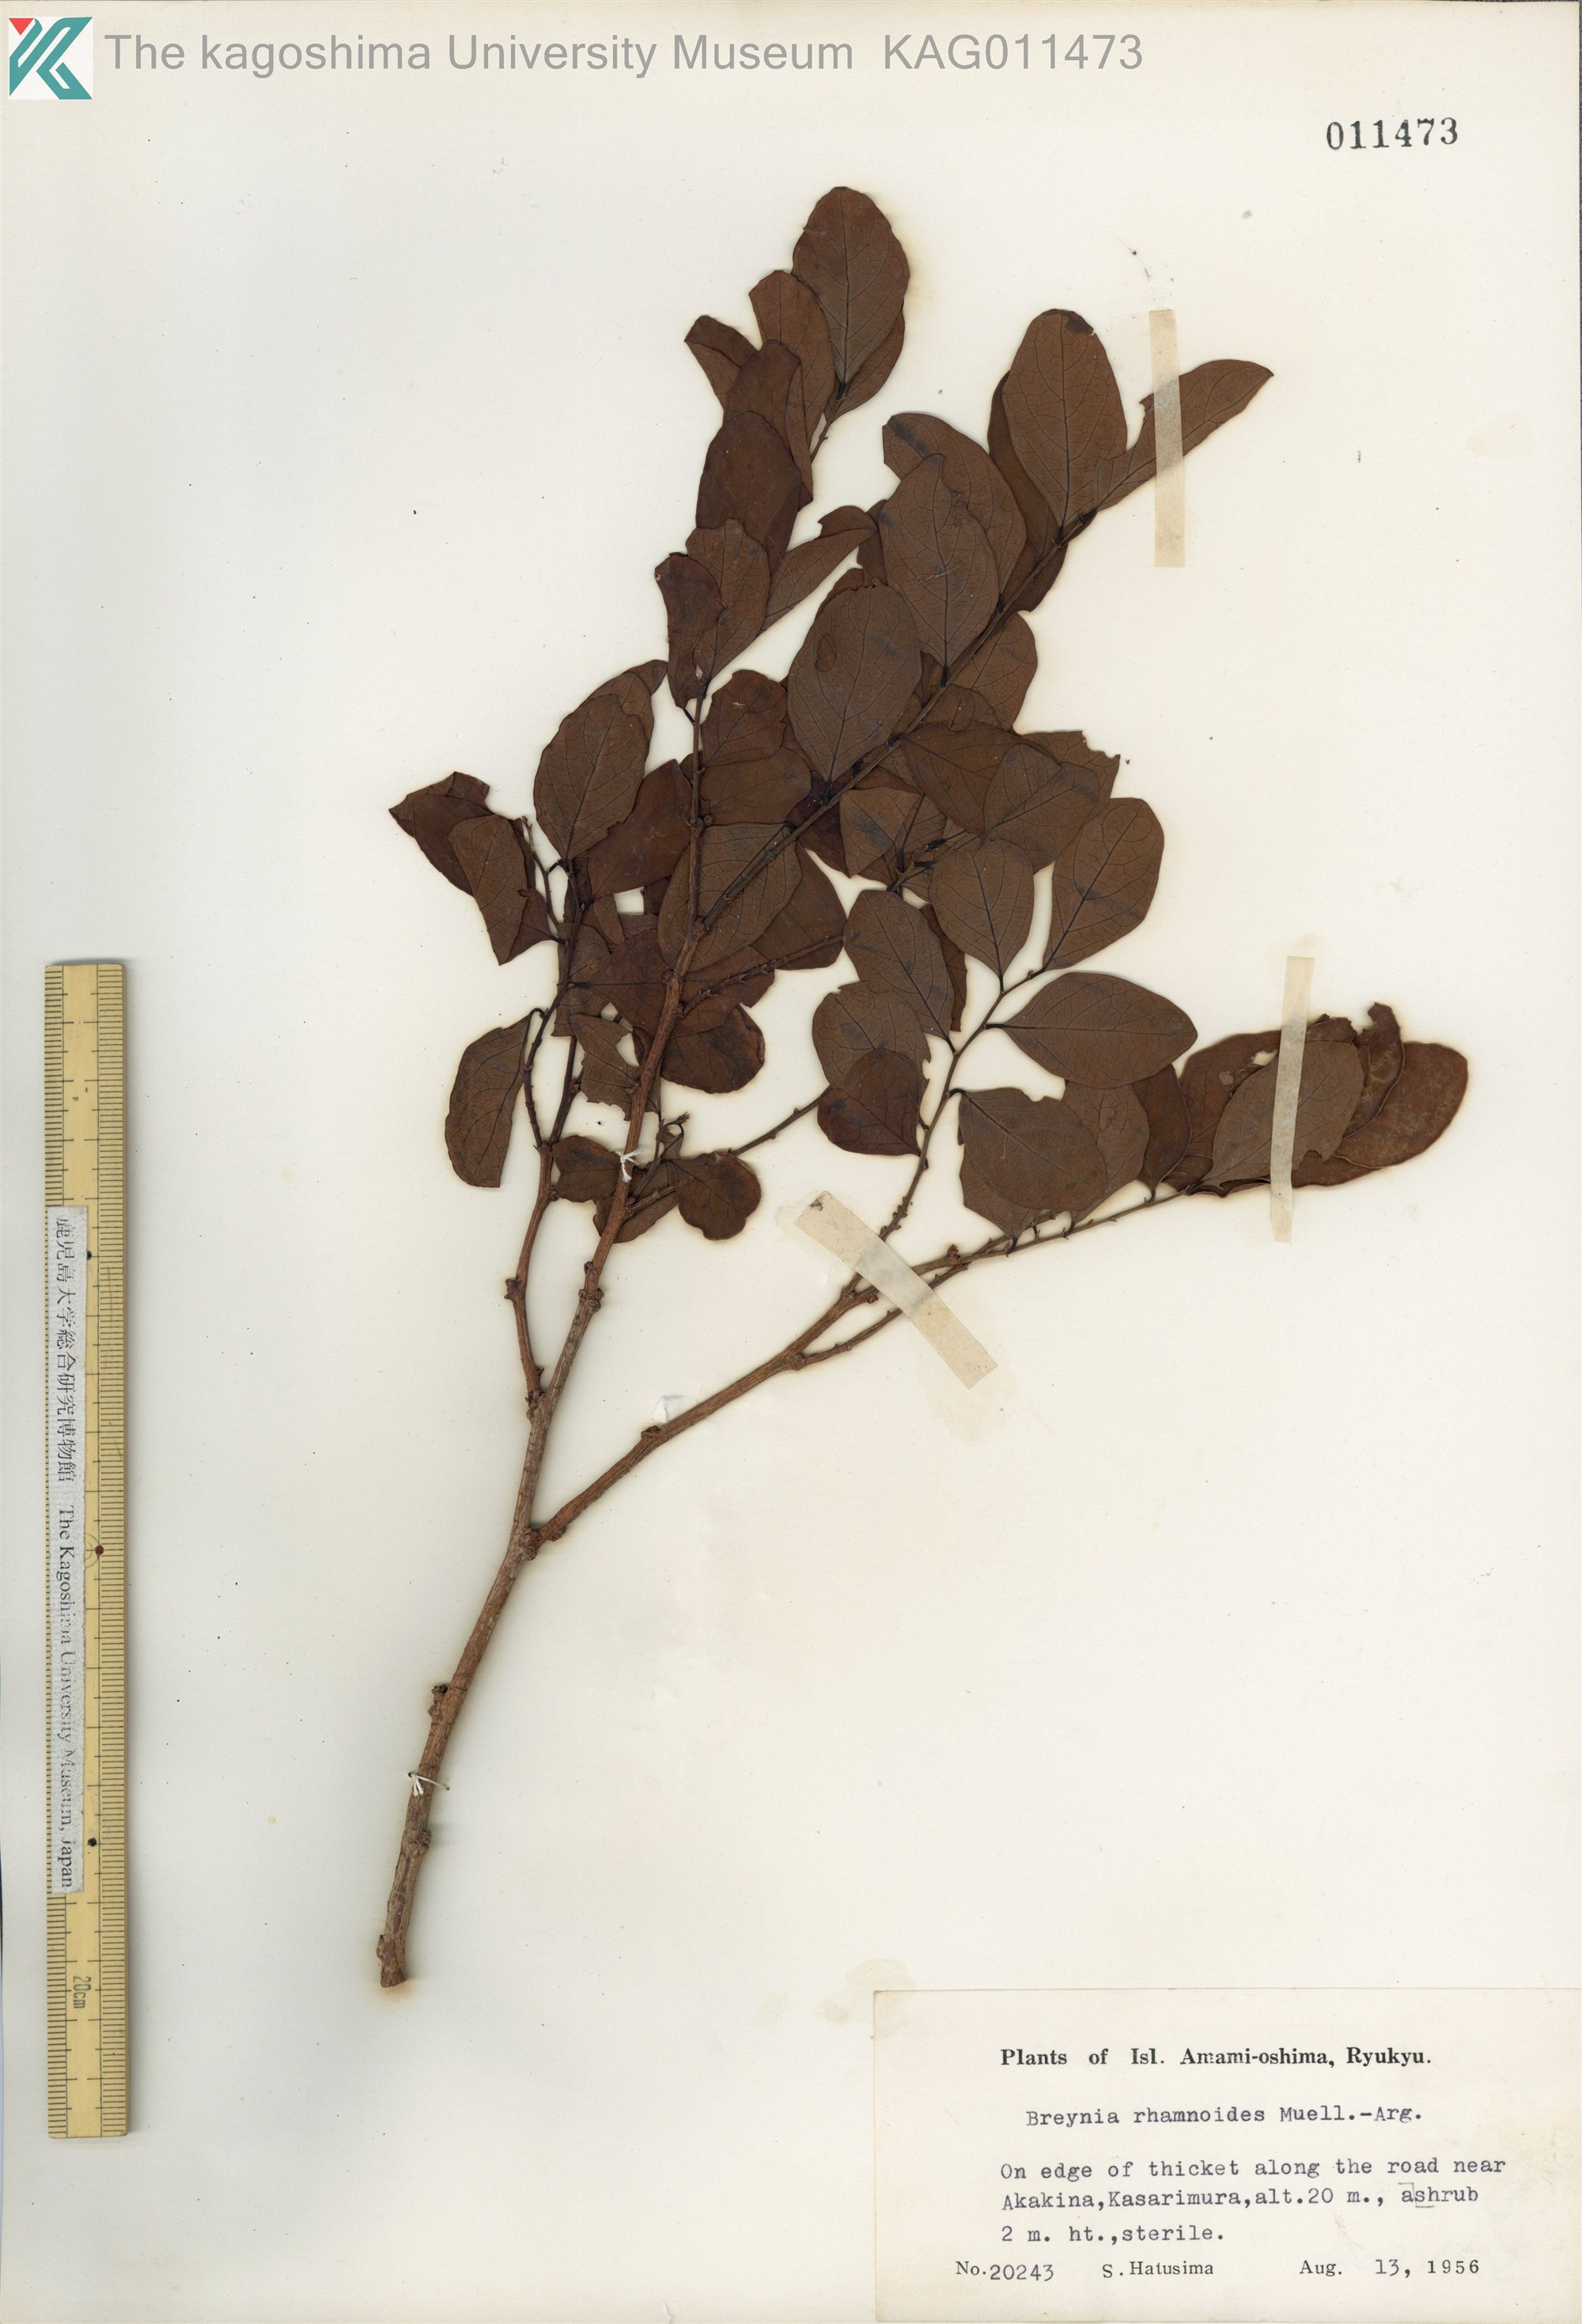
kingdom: Plantae
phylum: Tracheophyta
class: Magnoliopsida
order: Malpighiales
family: Phyllanthaceae
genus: Breynia
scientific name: Breynia vitis-idaea
